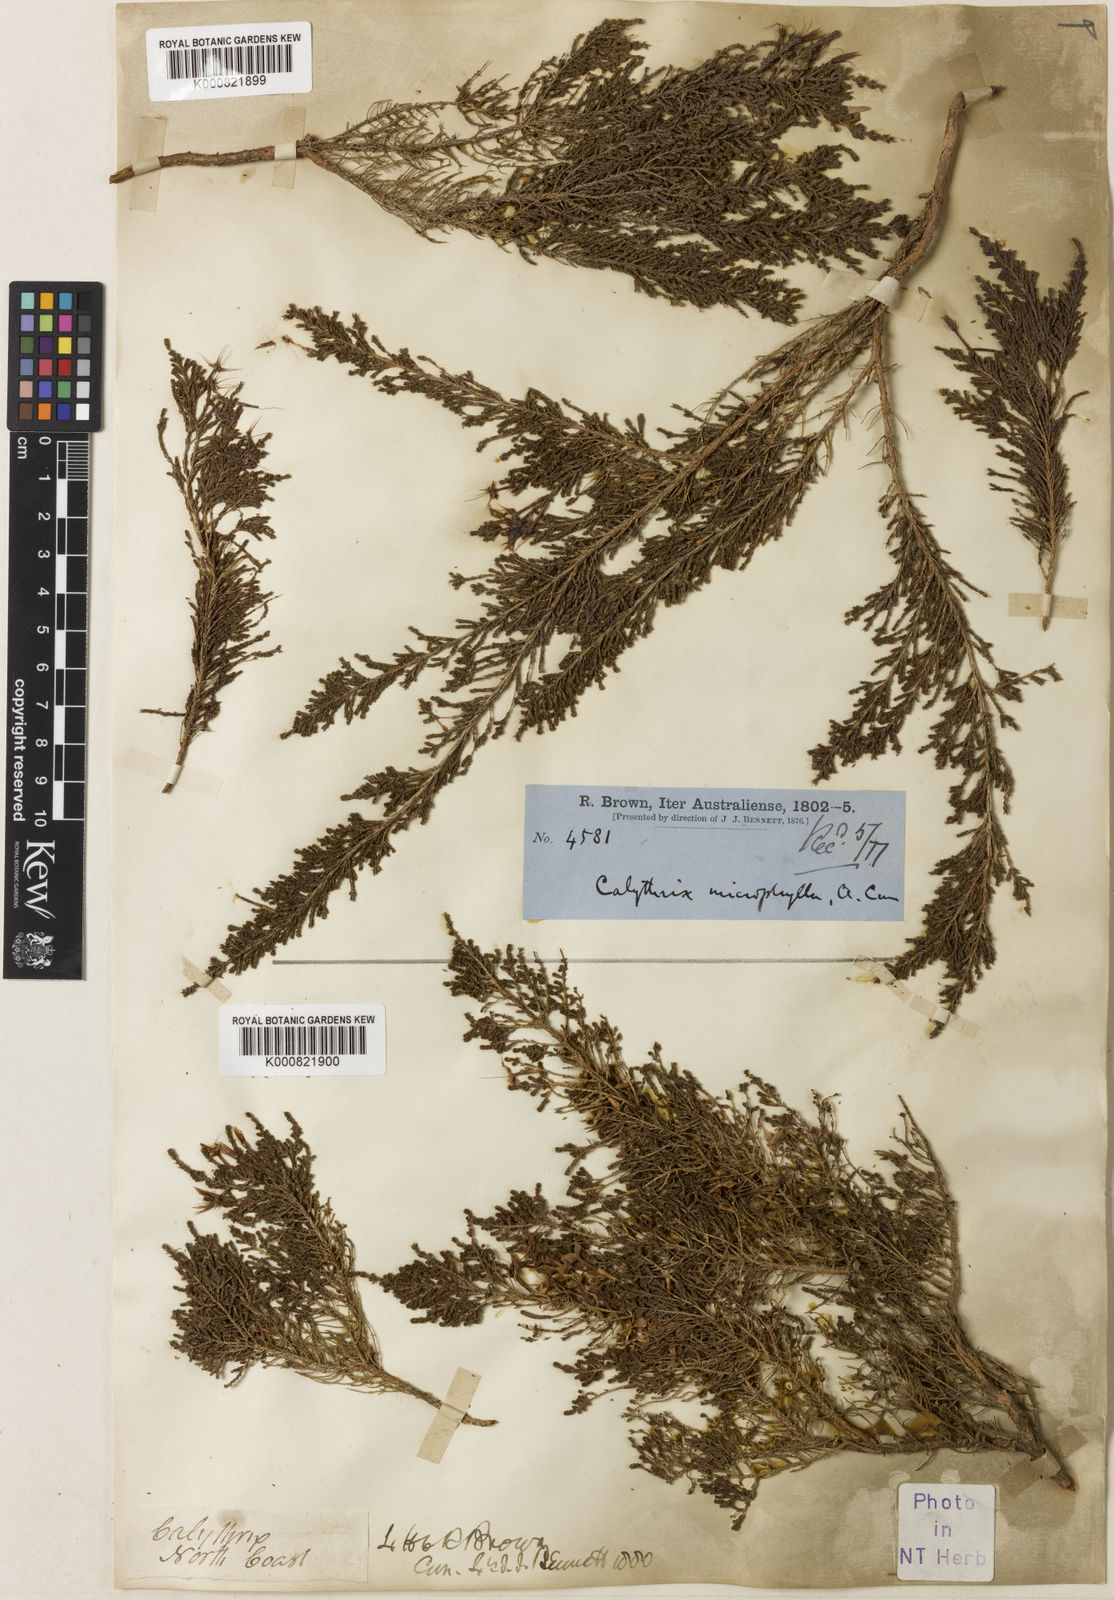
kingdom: Plantae
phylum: Tracheophyta
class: Magnoliopsida
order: Myrtales
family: Myrtaceae
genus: Calytrix
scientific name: Calytrix exstipulata
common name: Kimberley heather
